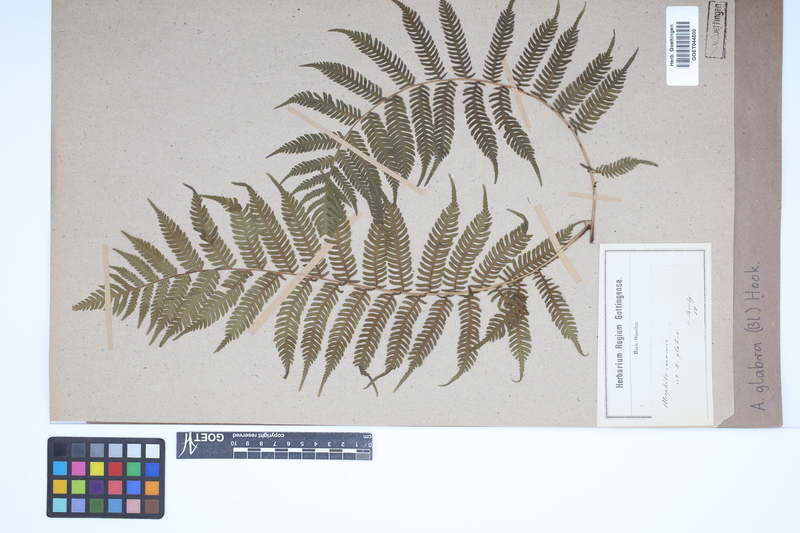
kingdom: Plantae
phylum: Tracheophyta
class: Polypodiopsida
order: Cyatheales
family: Cyatheaceae
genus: Sphaeropteris
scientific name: Sphaeropteris glauca
